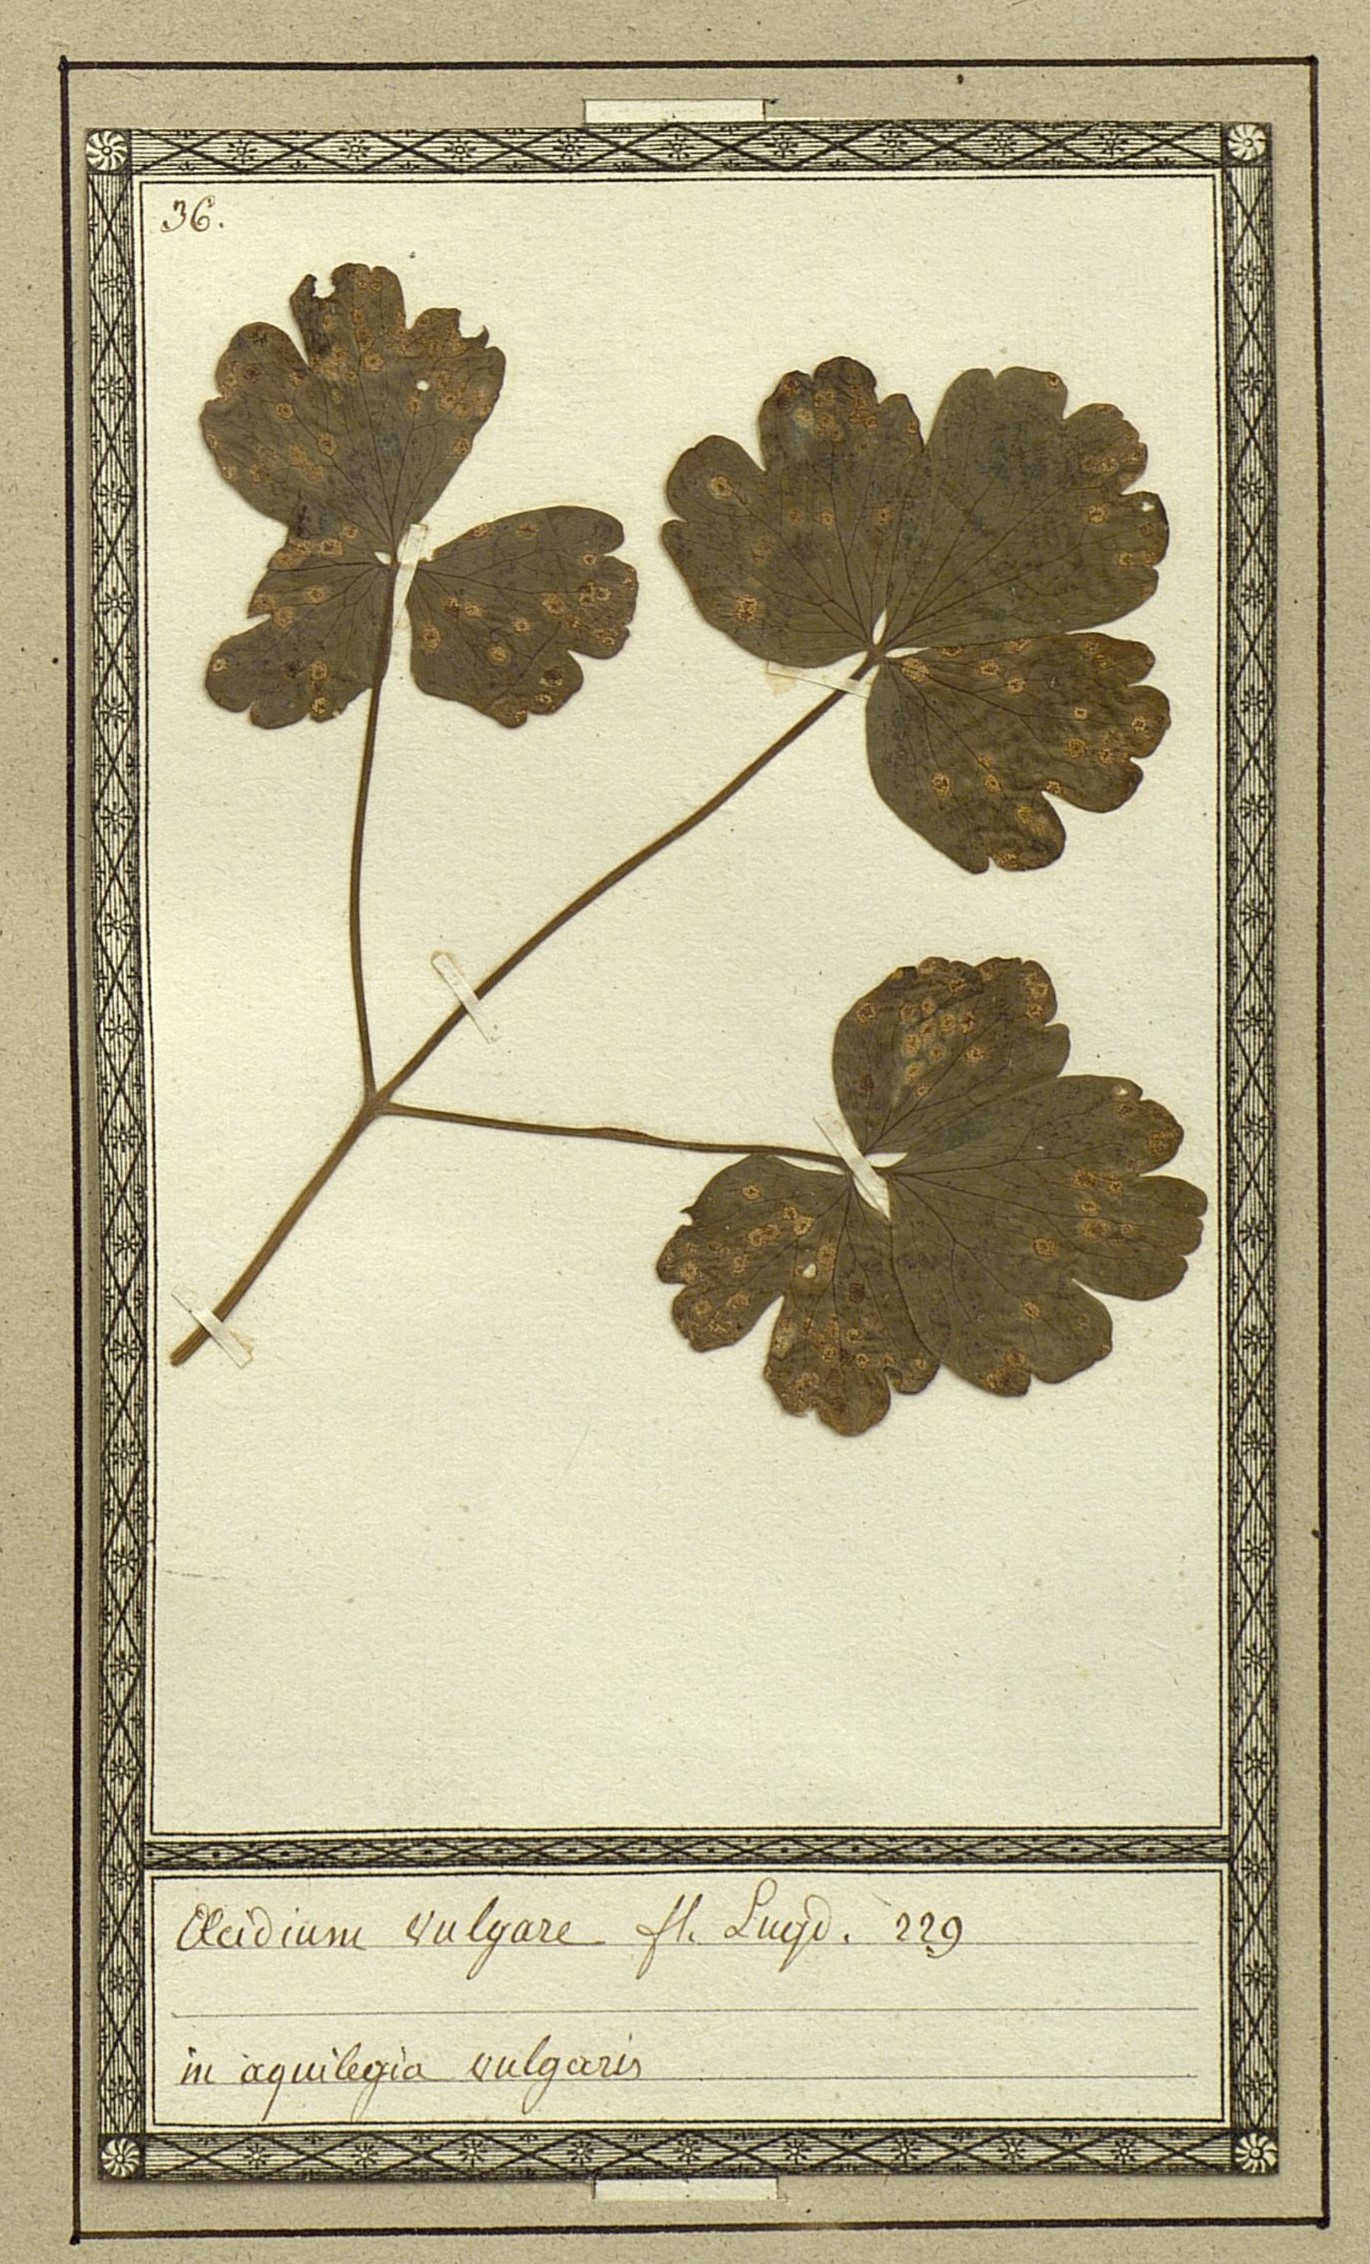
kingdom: Fungi
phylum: Basidiomycota
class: Pucciniomycetes
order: Pucciniales
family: Pucciniaceae
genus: Aecidium
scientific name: Aecidium
